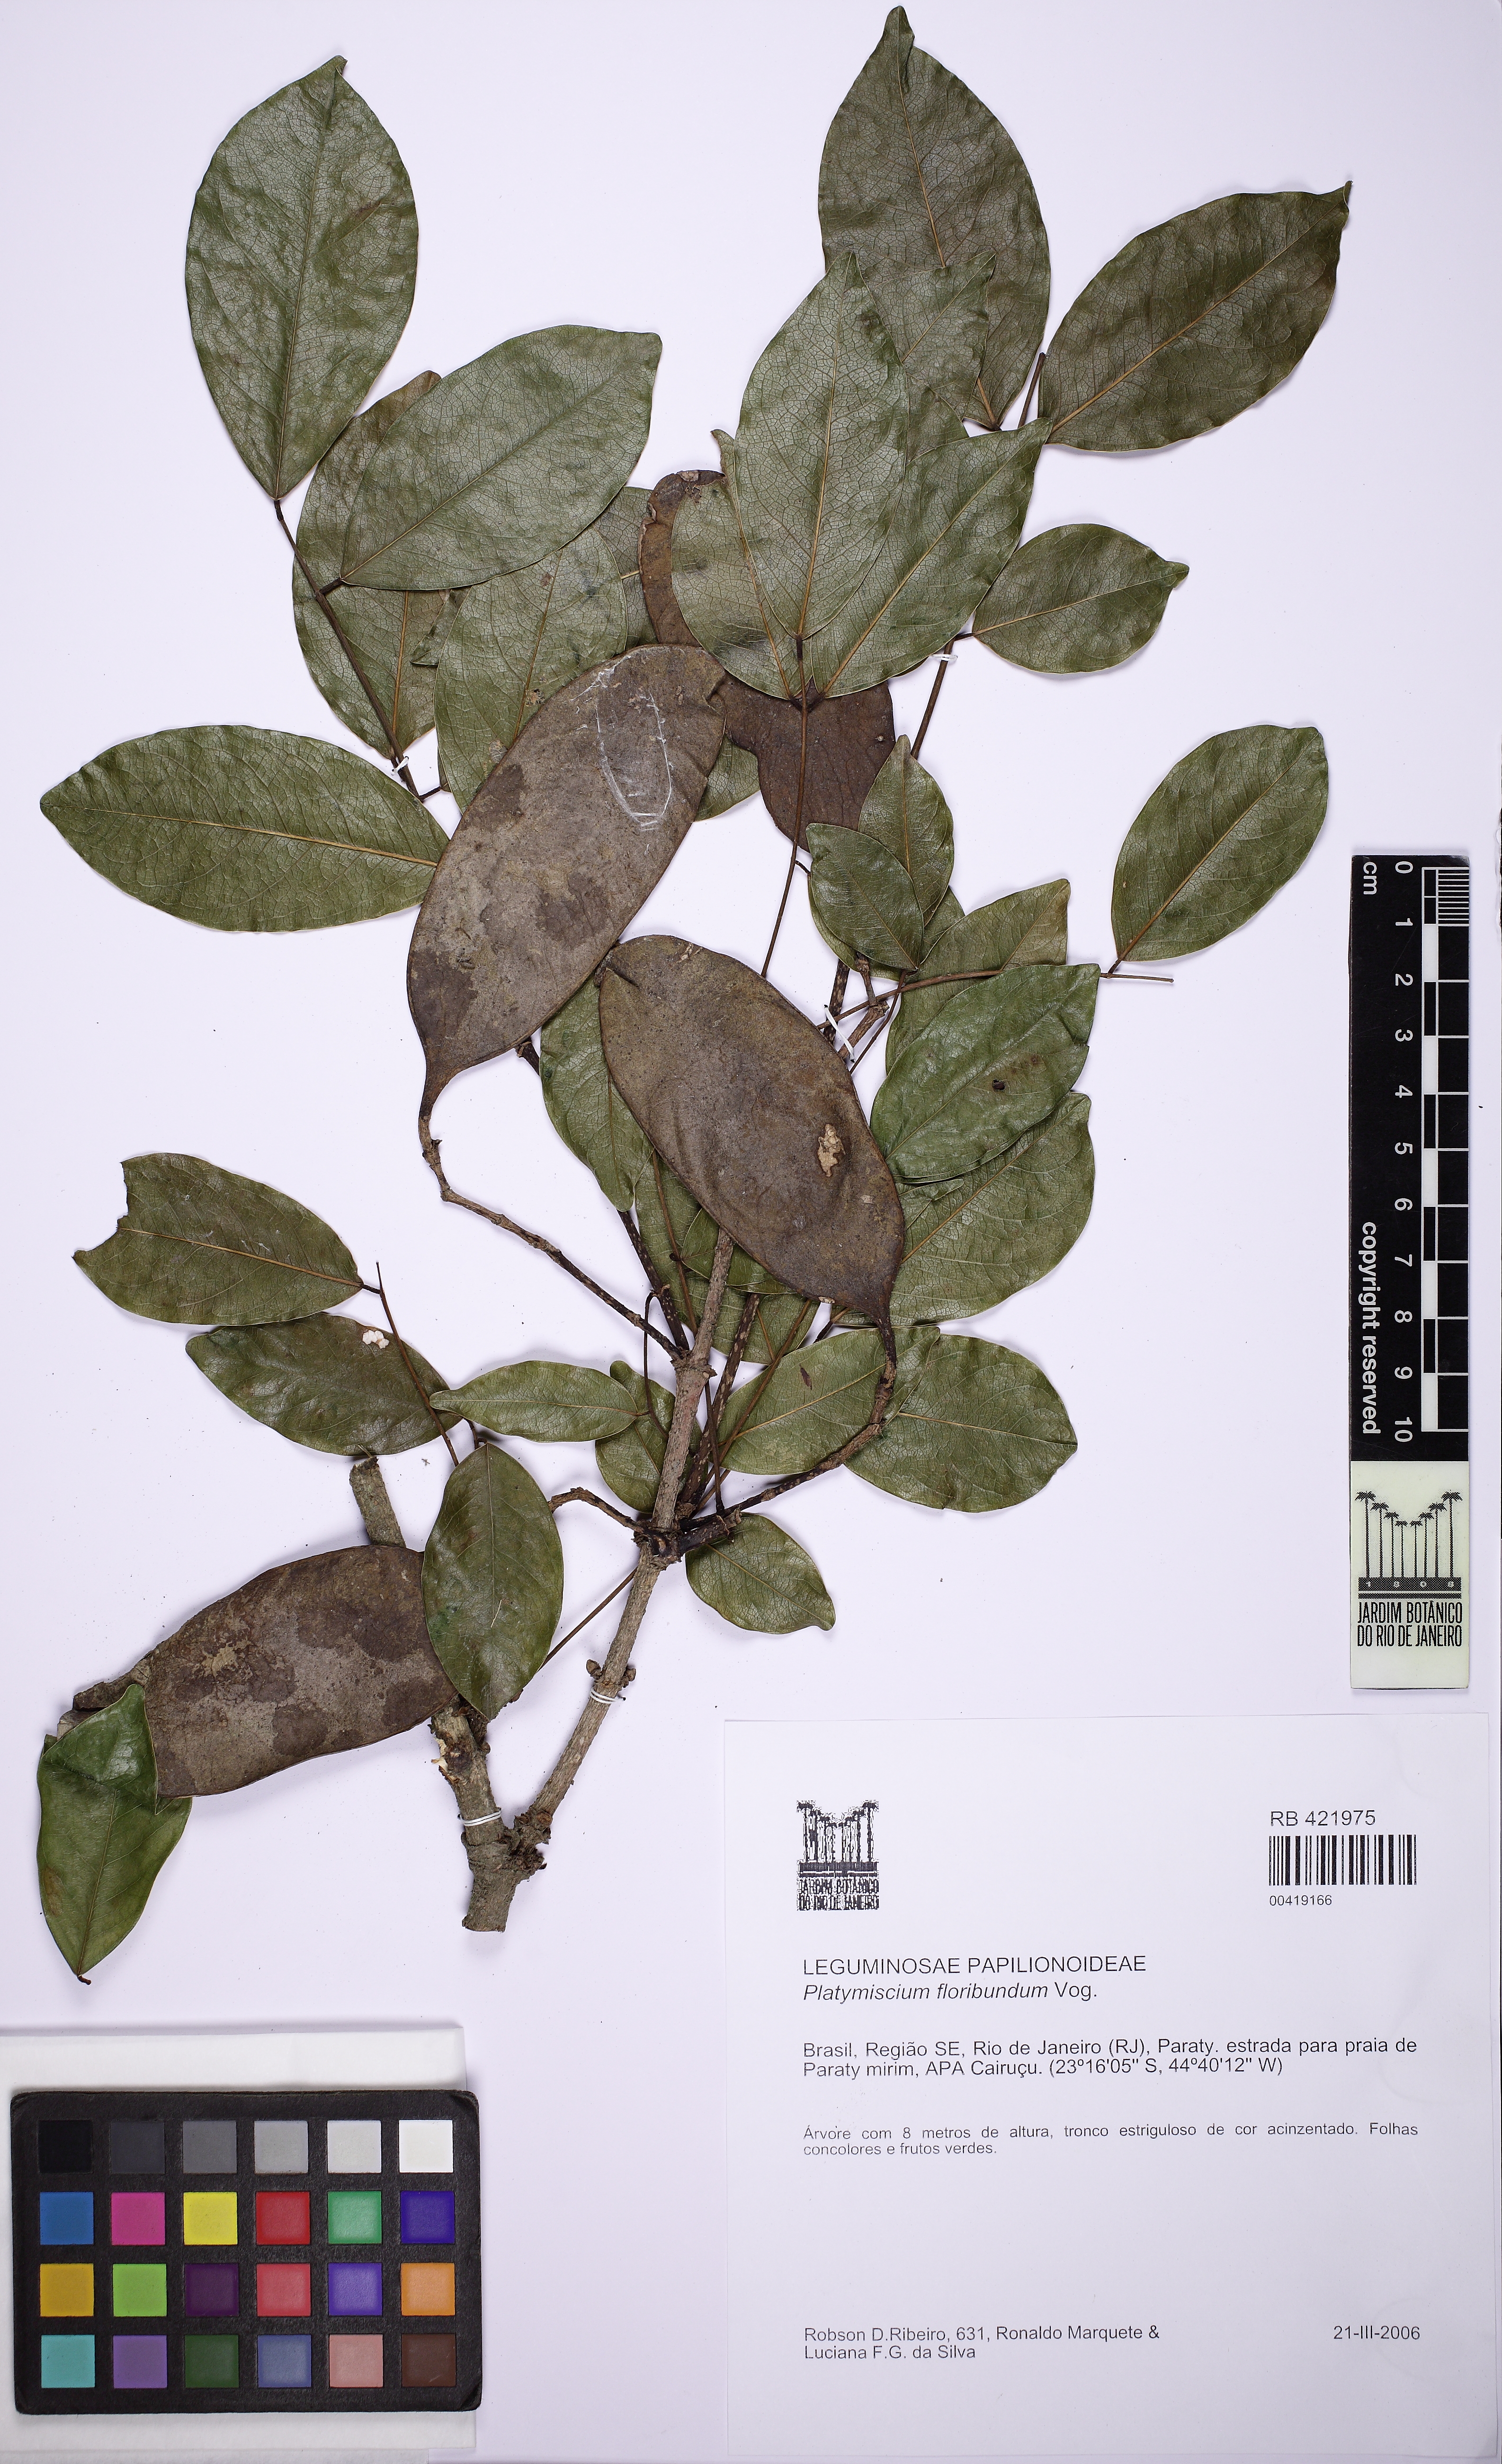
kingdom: Plantae
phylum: Tracheophyta
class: Magnoliopsida
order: Fabales
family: Fabaceae
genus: Platymiscium
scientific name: Platymiscium floribundum
